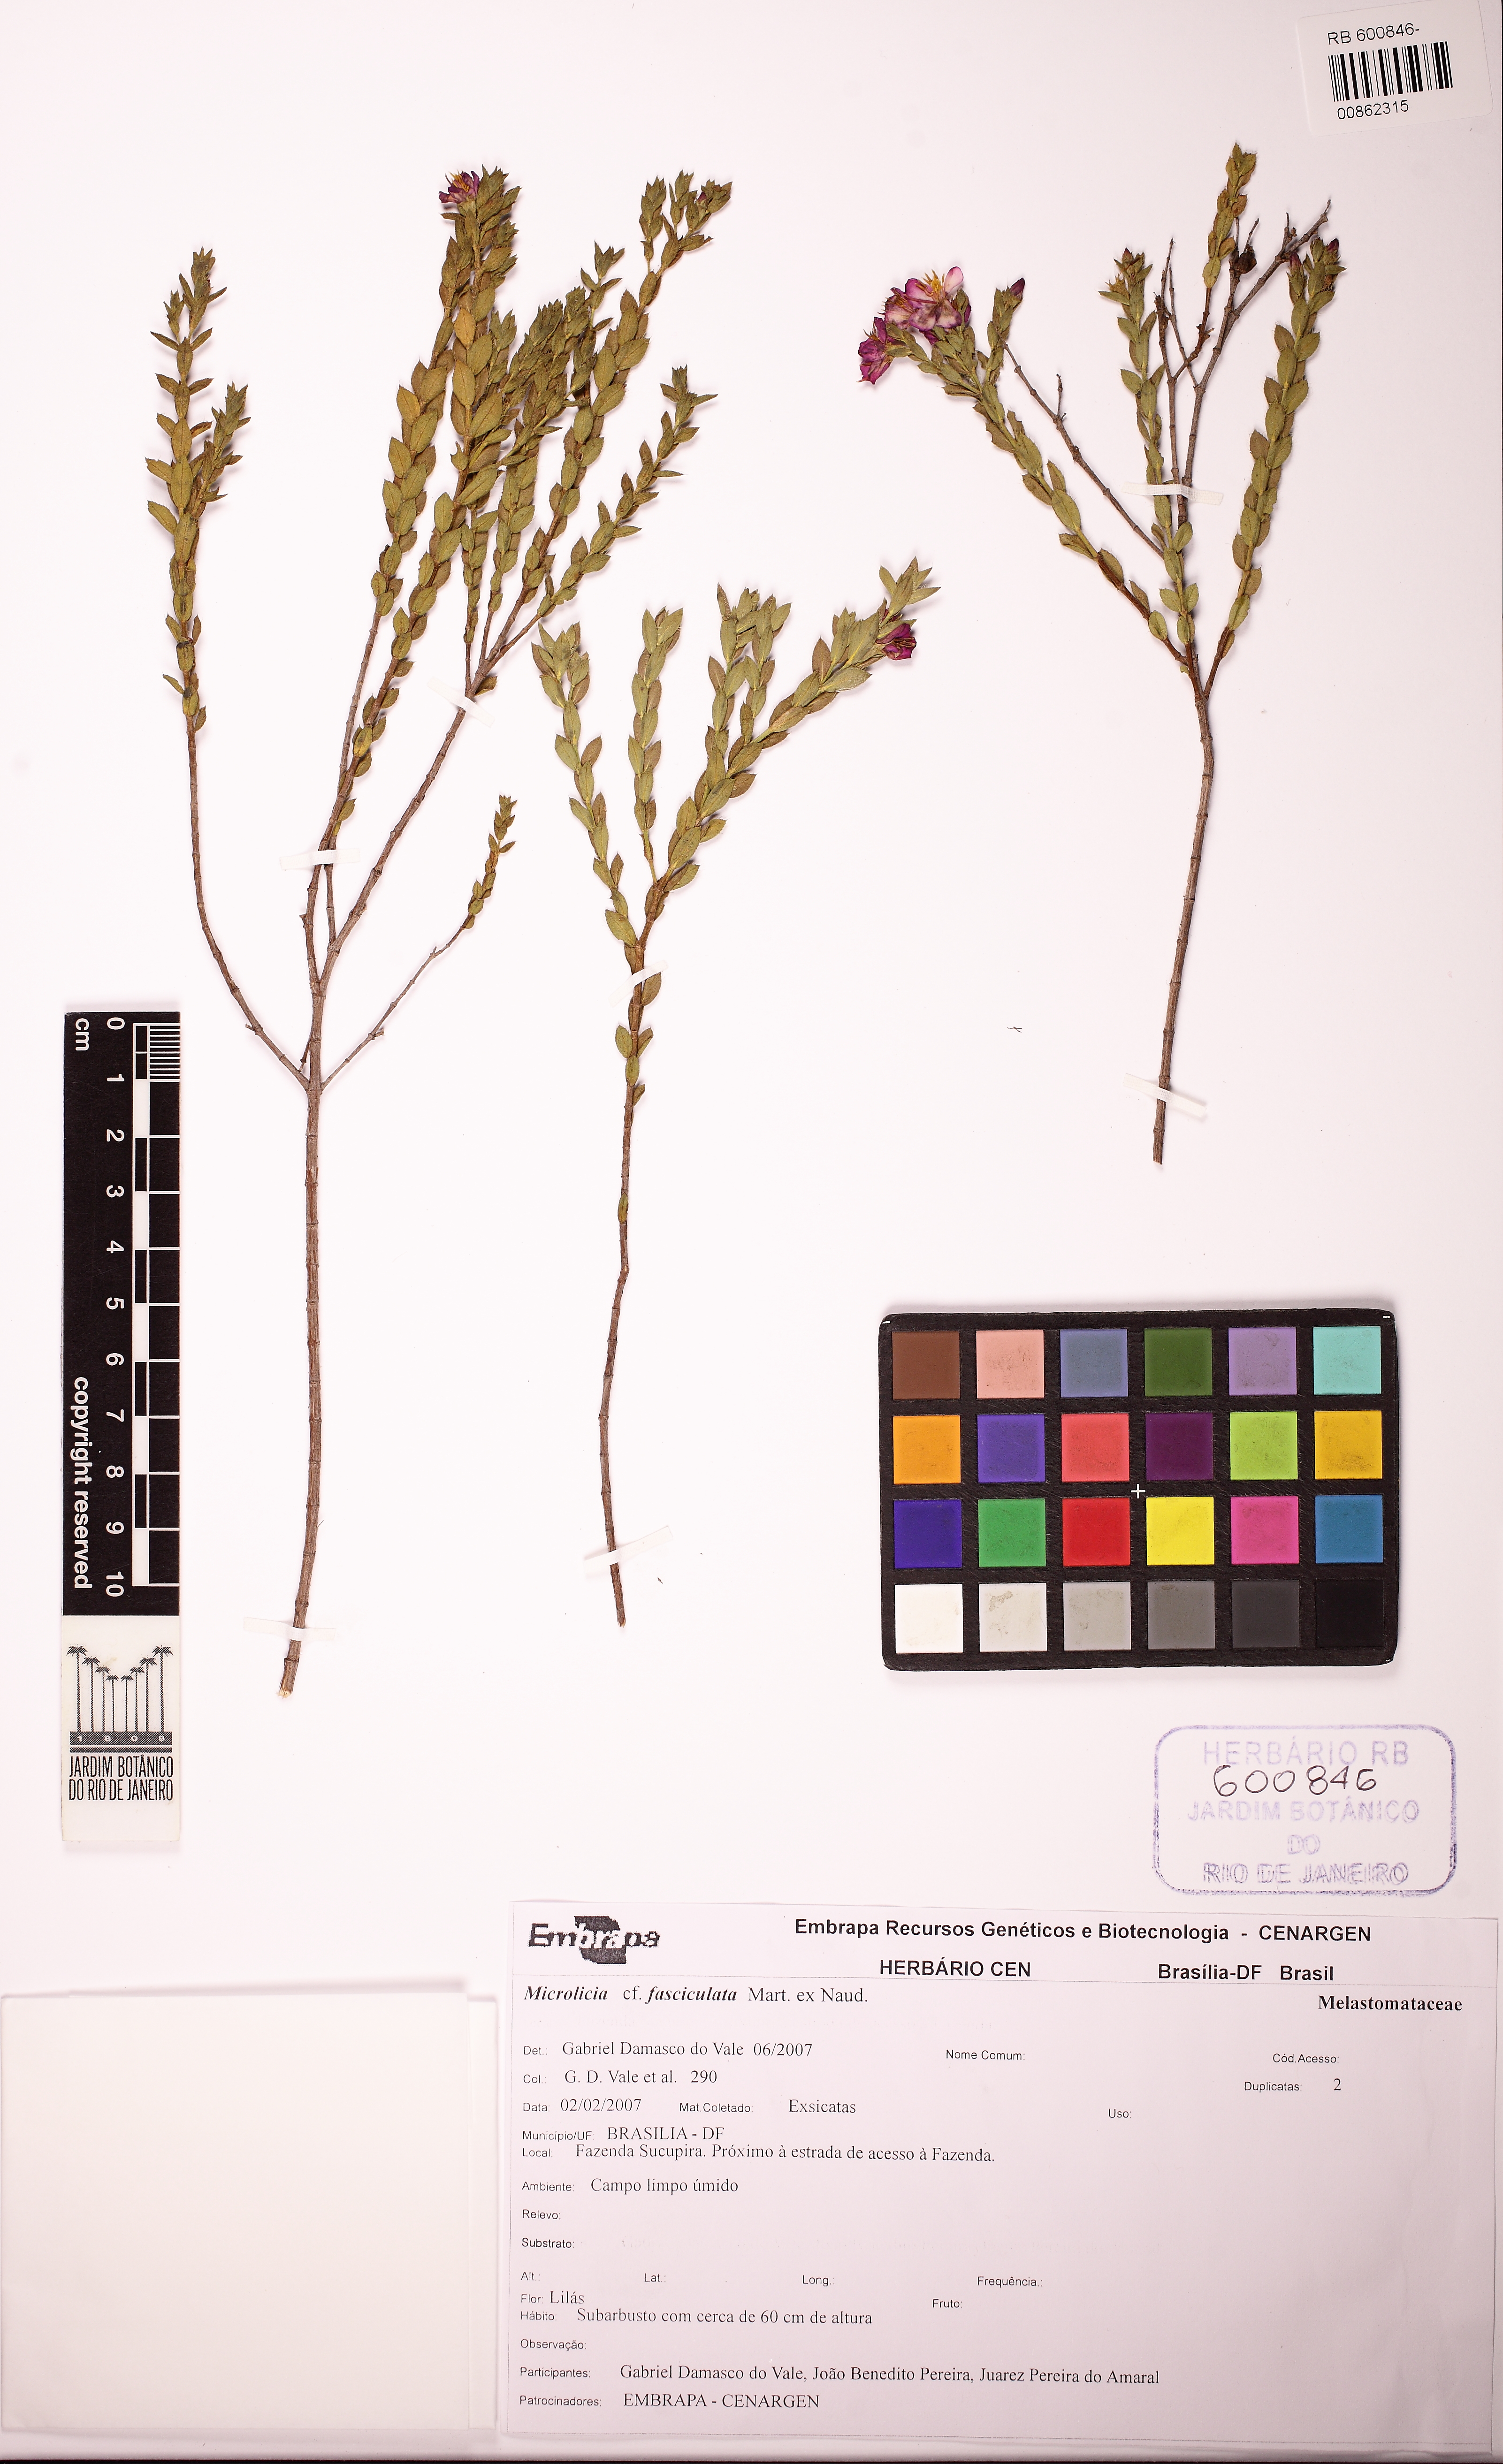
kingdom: Plantae
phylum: Tracheophyta
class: Magnoliopsida
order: Myrtales
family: Melastomataceae
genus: Microlicia
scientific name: Microlicia hirticalyx
